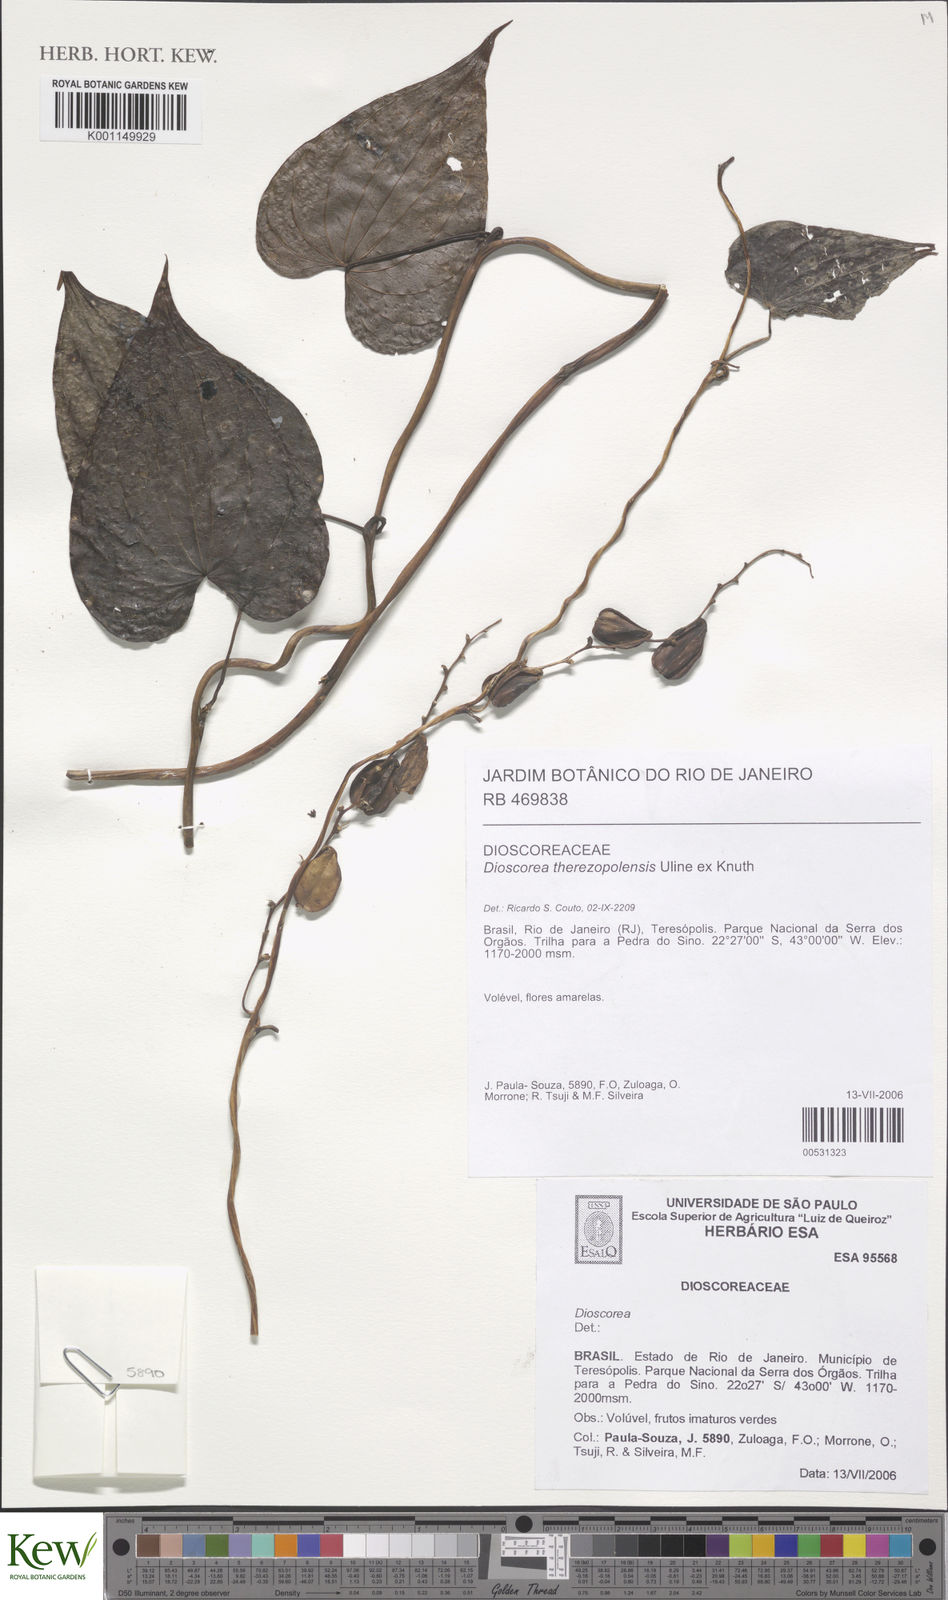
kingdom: Plantae
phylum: Tracheophyta
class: Liliopsida
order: Dioscoreales
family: Dioscoreaceae
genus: Dioscorea
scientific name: Dioscorea therezopolensis
